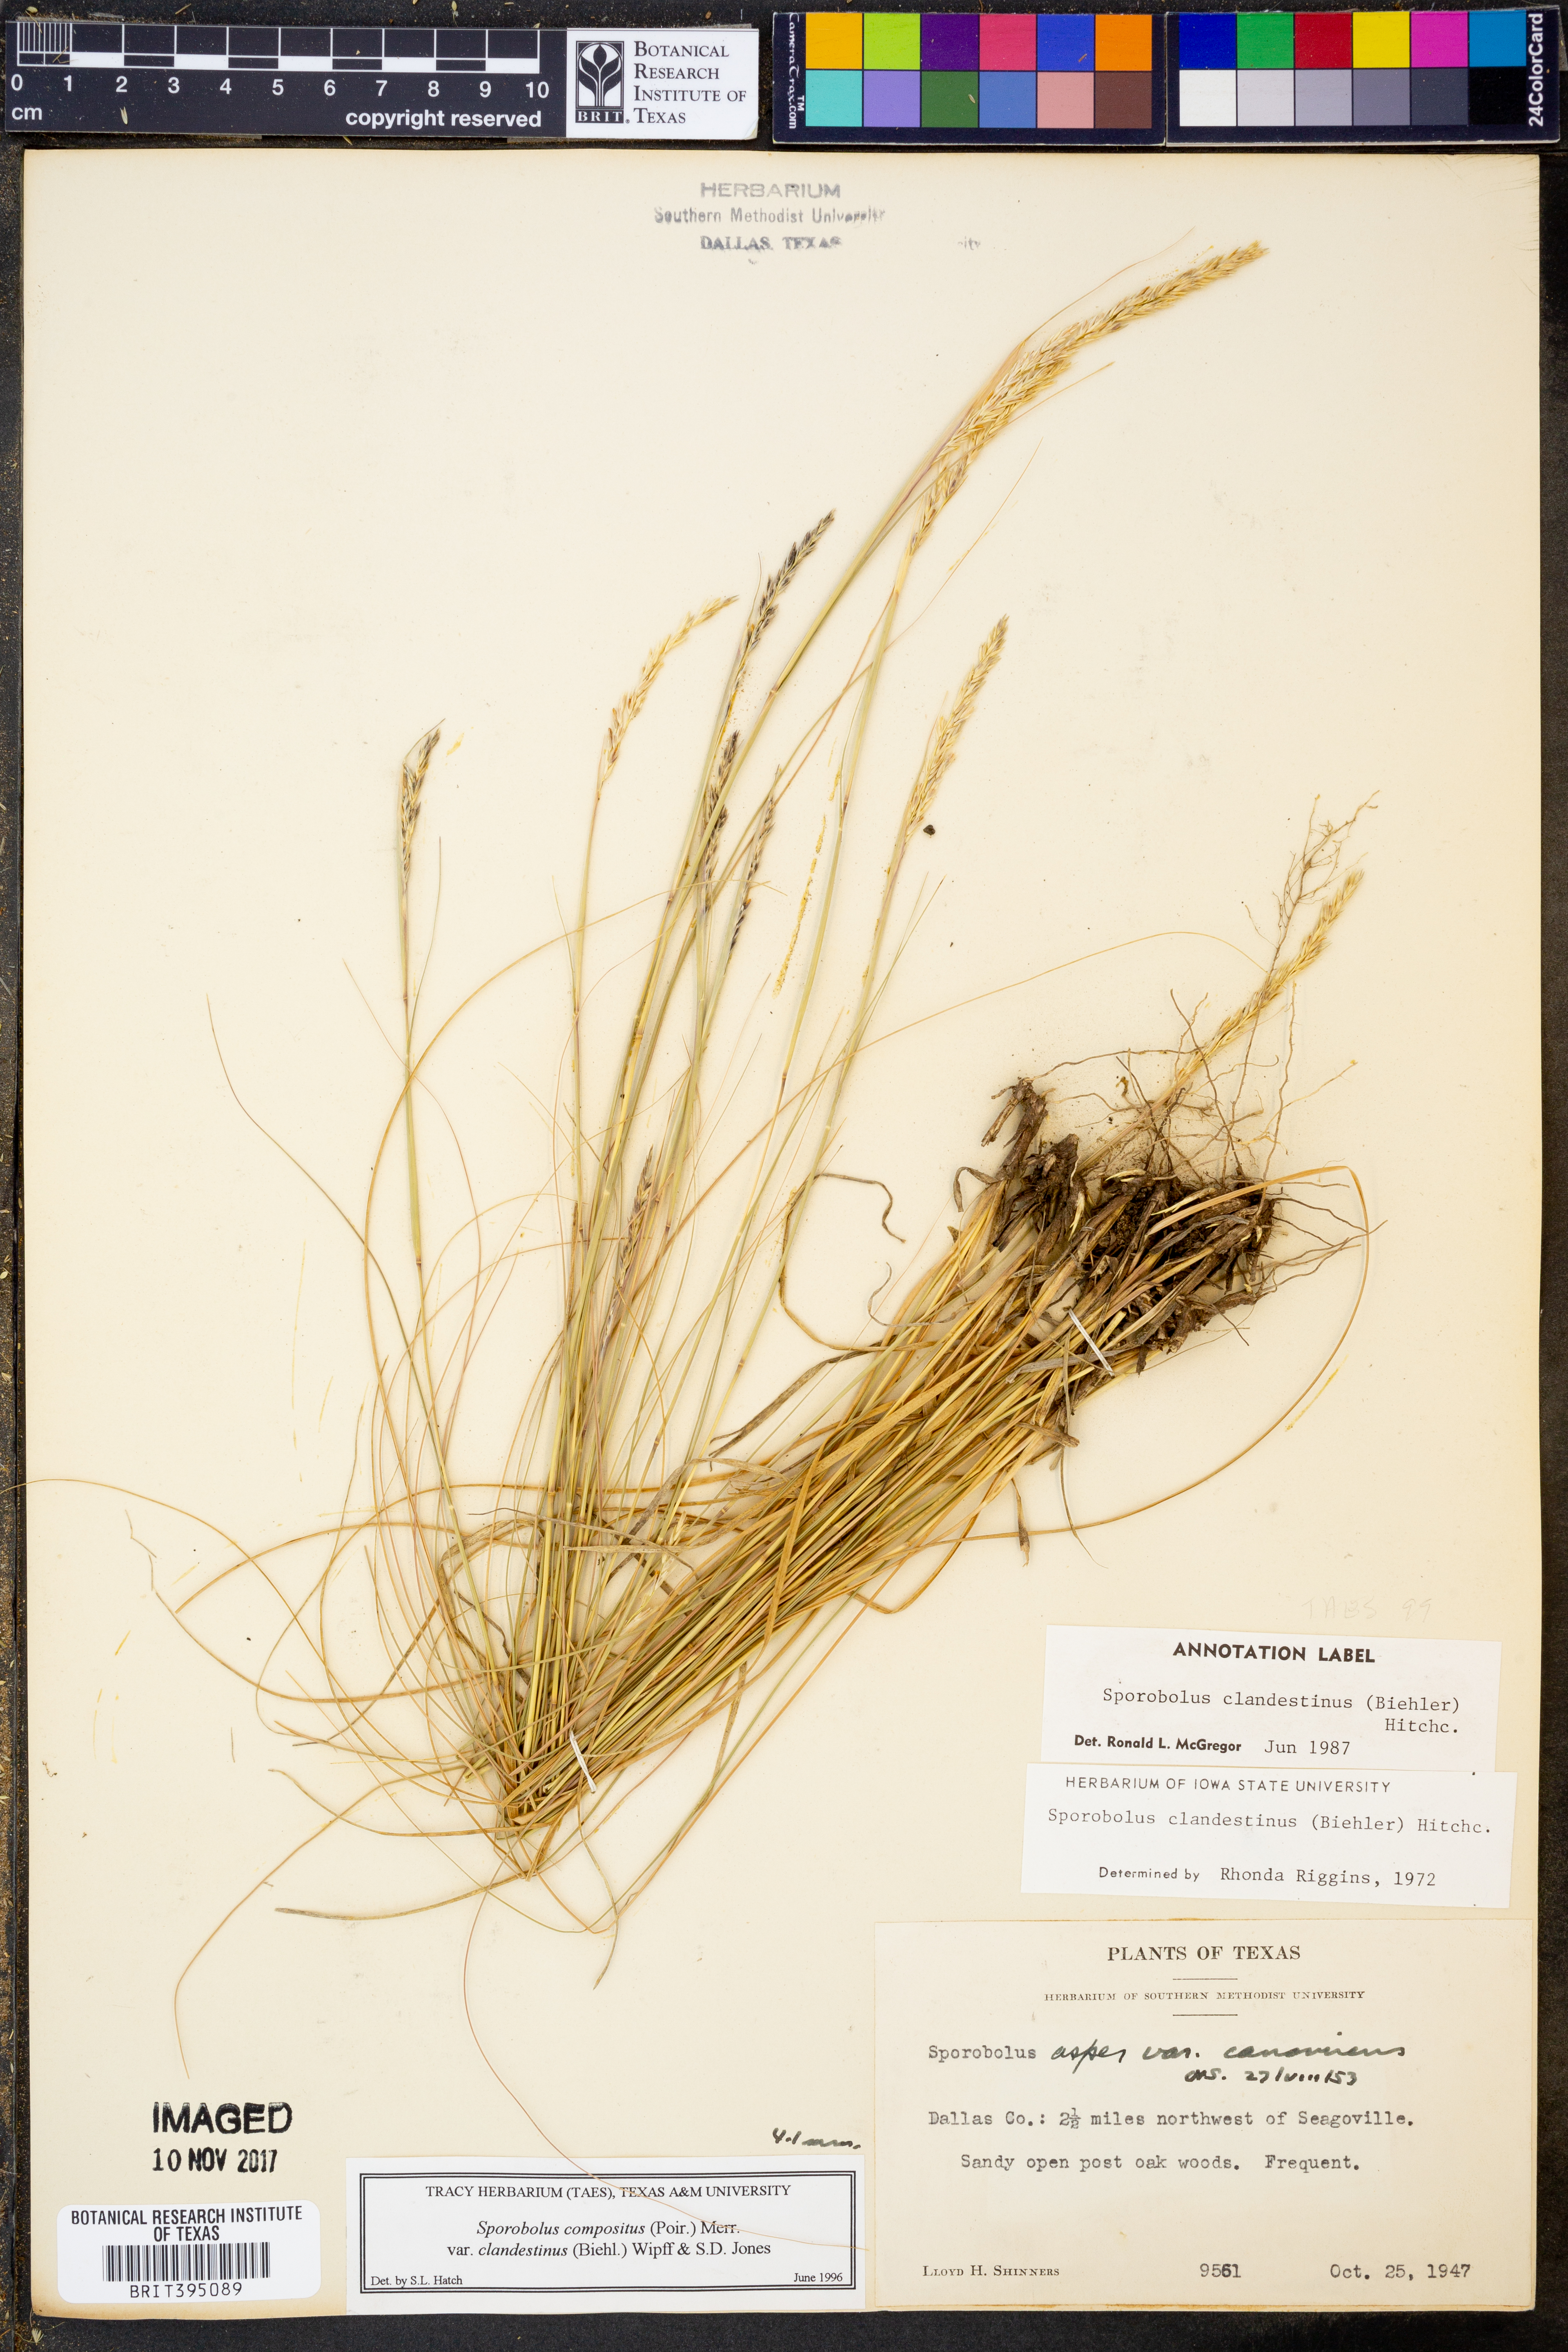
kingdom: Plantae
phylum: Tracheophyta
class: Liliopsida
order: Poales
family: Poaceae
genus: Sporobolus
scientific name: Sporobolus clandestinus
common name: Hidden dropseed
